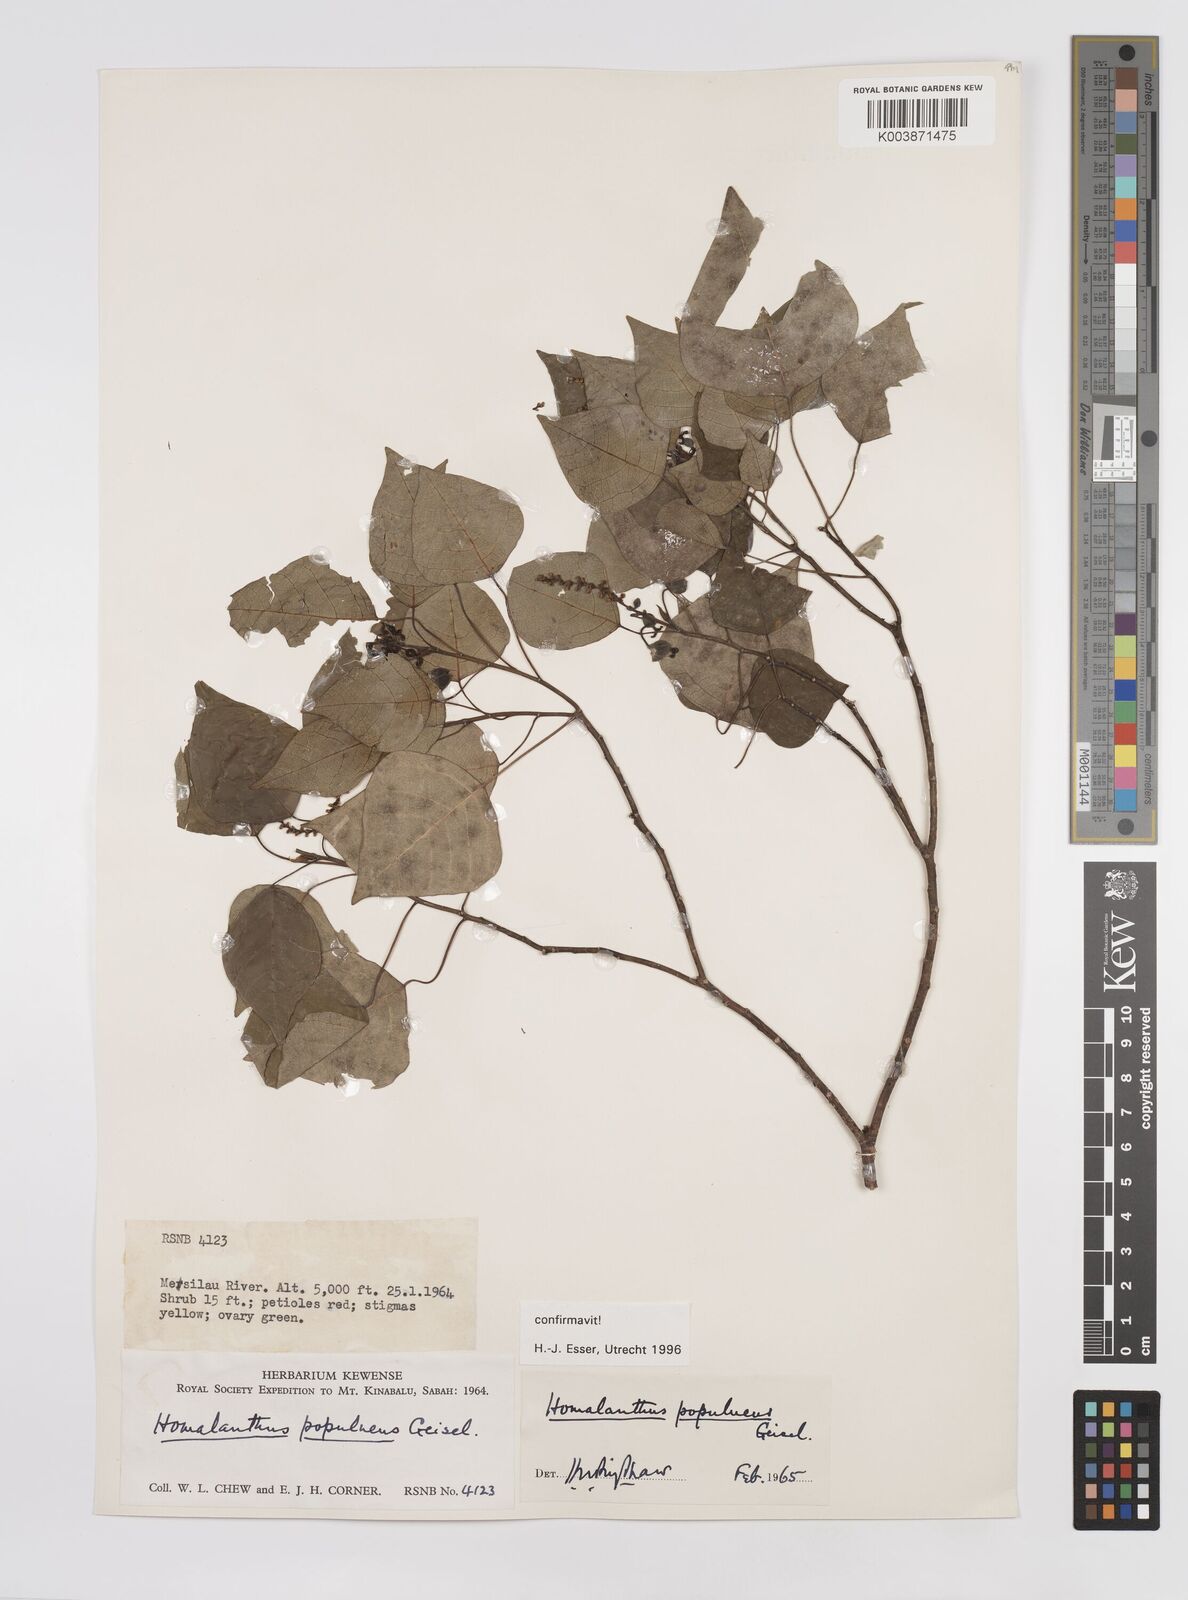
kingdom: Plantae
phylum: Tracheophyta
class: Magnoliopsida
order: Malpighiales
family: Euphorbiaceae
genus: Homalanthus
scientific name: Homalanthus populneus
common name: Spurge
